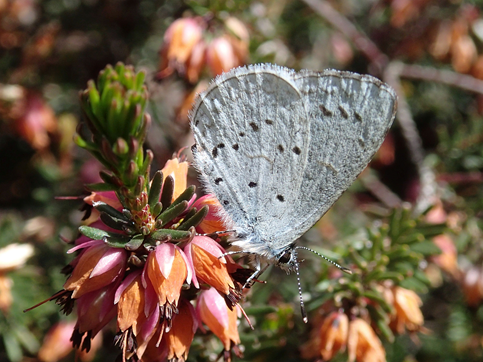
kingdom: Animalia
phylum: Arthropoda
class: Insecta
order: Lepidoptera
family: Lycaenidae
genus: Celastrina
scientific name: Celastrina ladon
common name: Echo Azure
